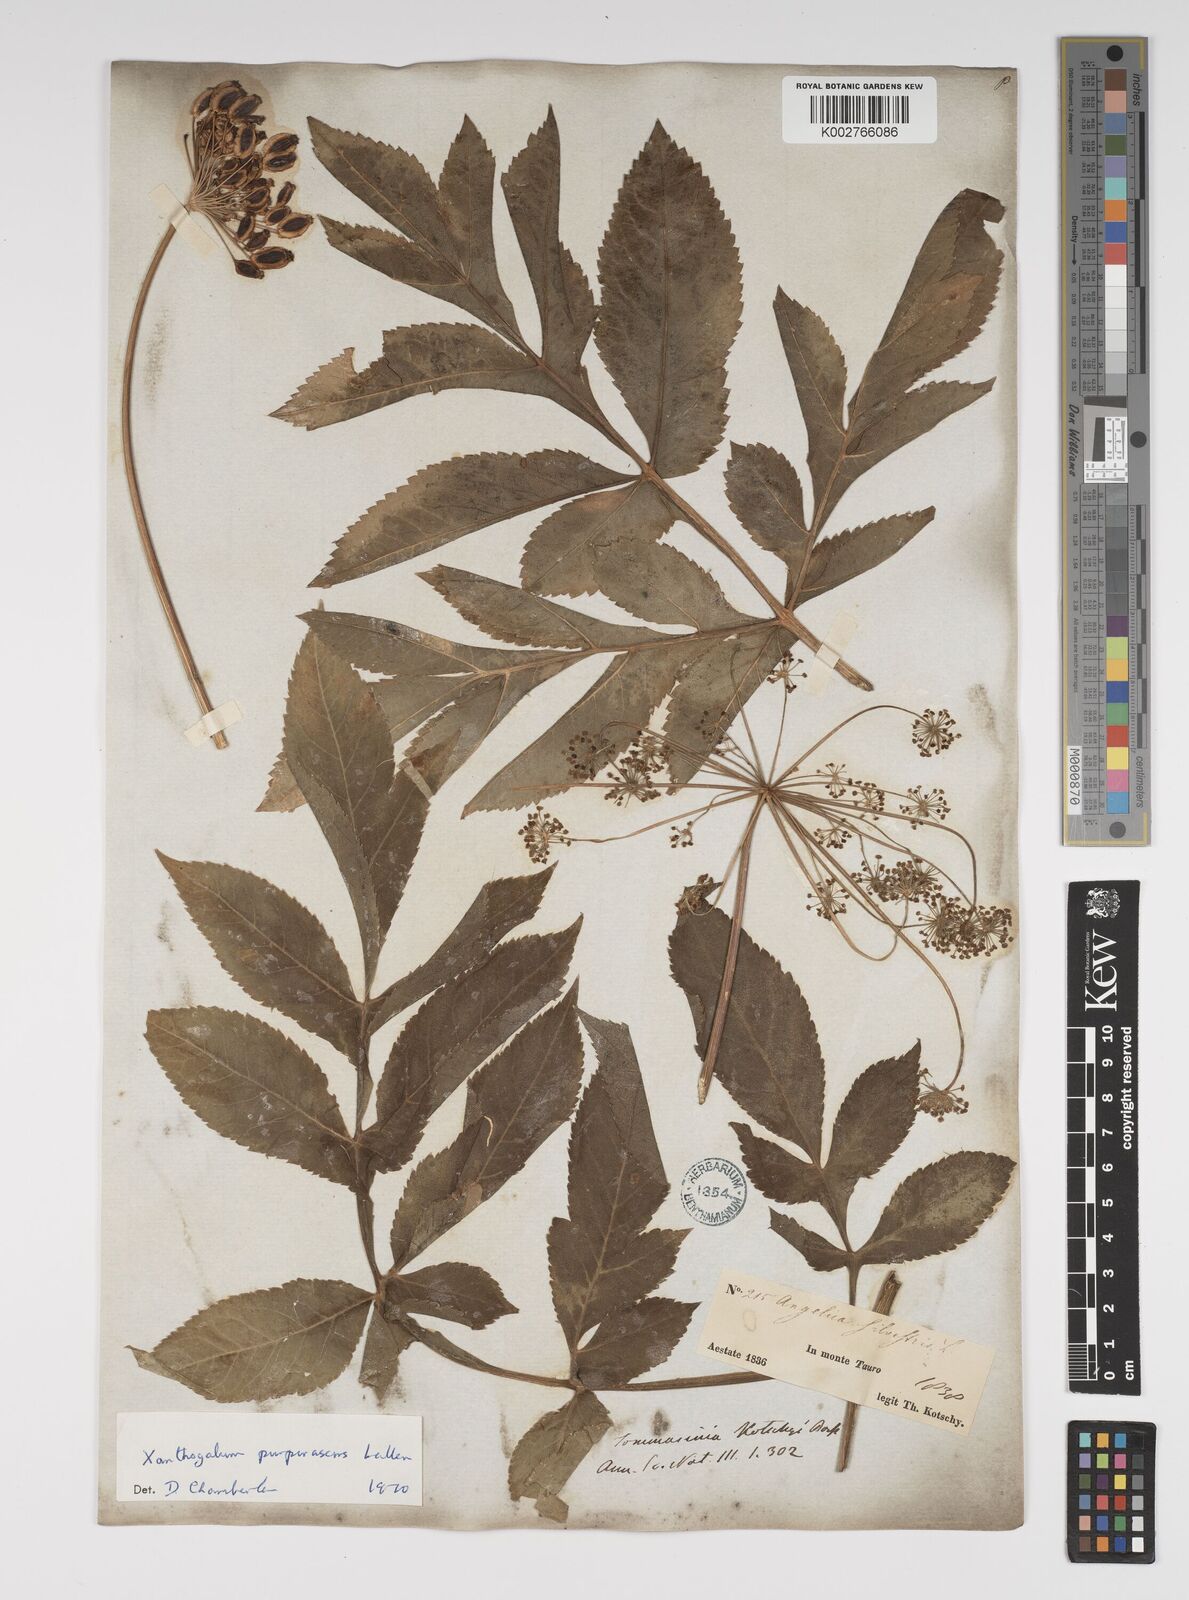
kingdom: Plantae
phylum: Tracheophyta
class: Magnoliopsida
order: Apiales
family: Apiaceae
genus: Xanthogalum
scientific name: Xanthogalum purpurascens
